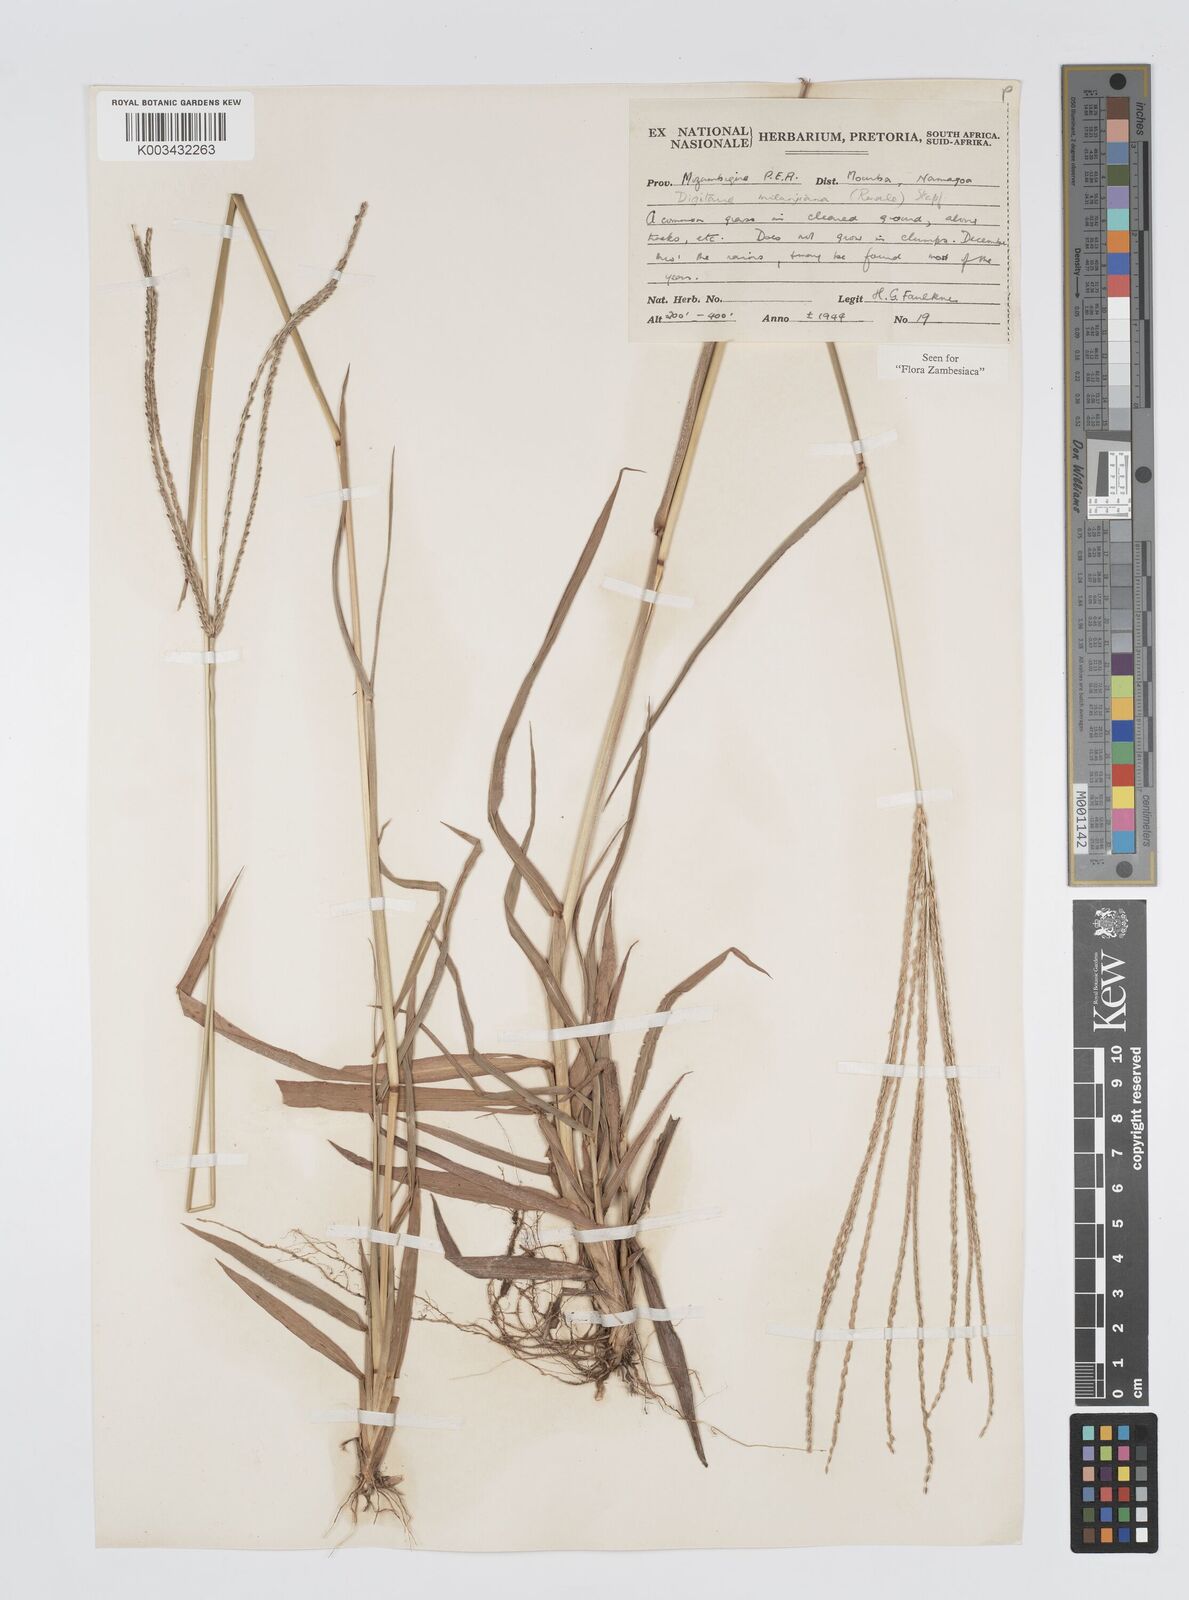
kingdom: Plantae
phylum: Tracheophyta
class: Liliopsida
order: Poales
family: Poaceae
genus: Digitaria
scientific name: Digitaria milanjiana
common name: Madagascar crabgrass
